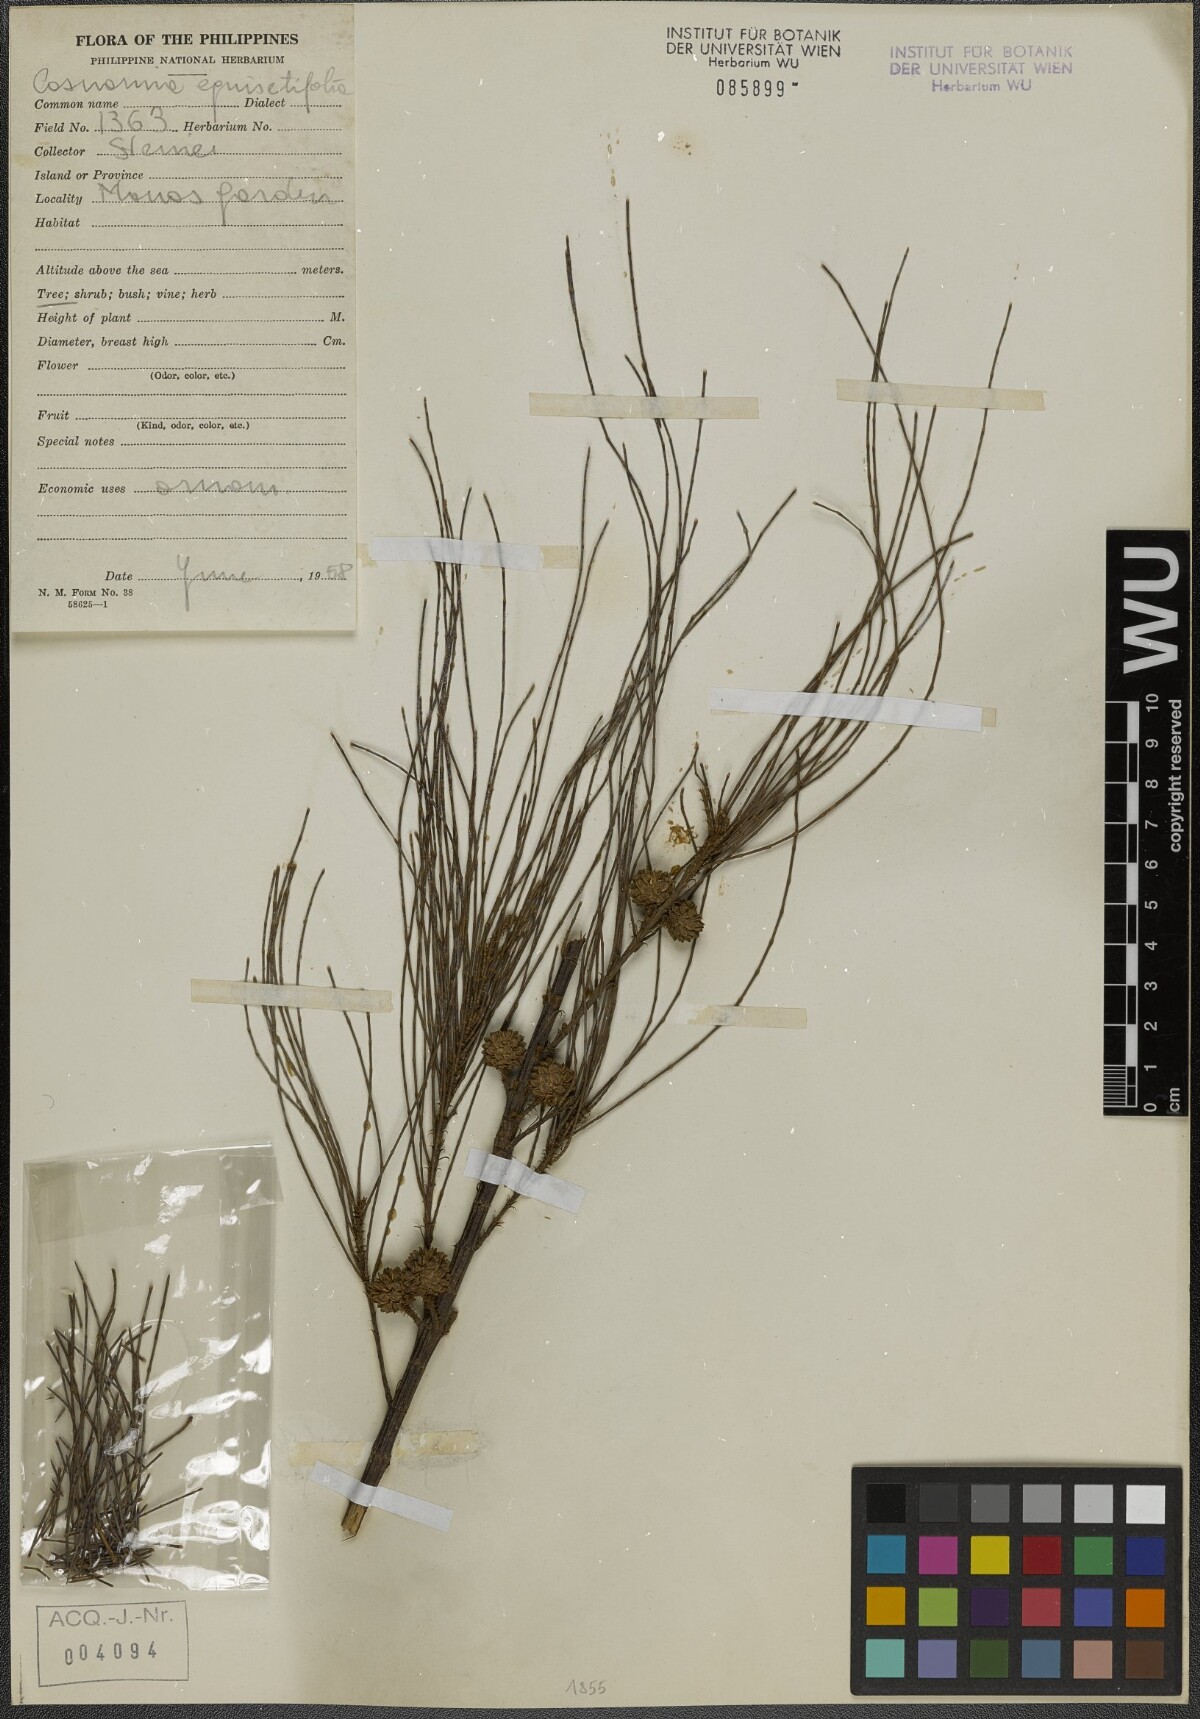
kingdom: Plantae
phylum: Tracheophyta
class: Magnoliopsida
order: Fagales
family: Casuarinaceae
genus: Casuarina
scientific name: Casuarina equisetifolia
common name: Beach sheoak
